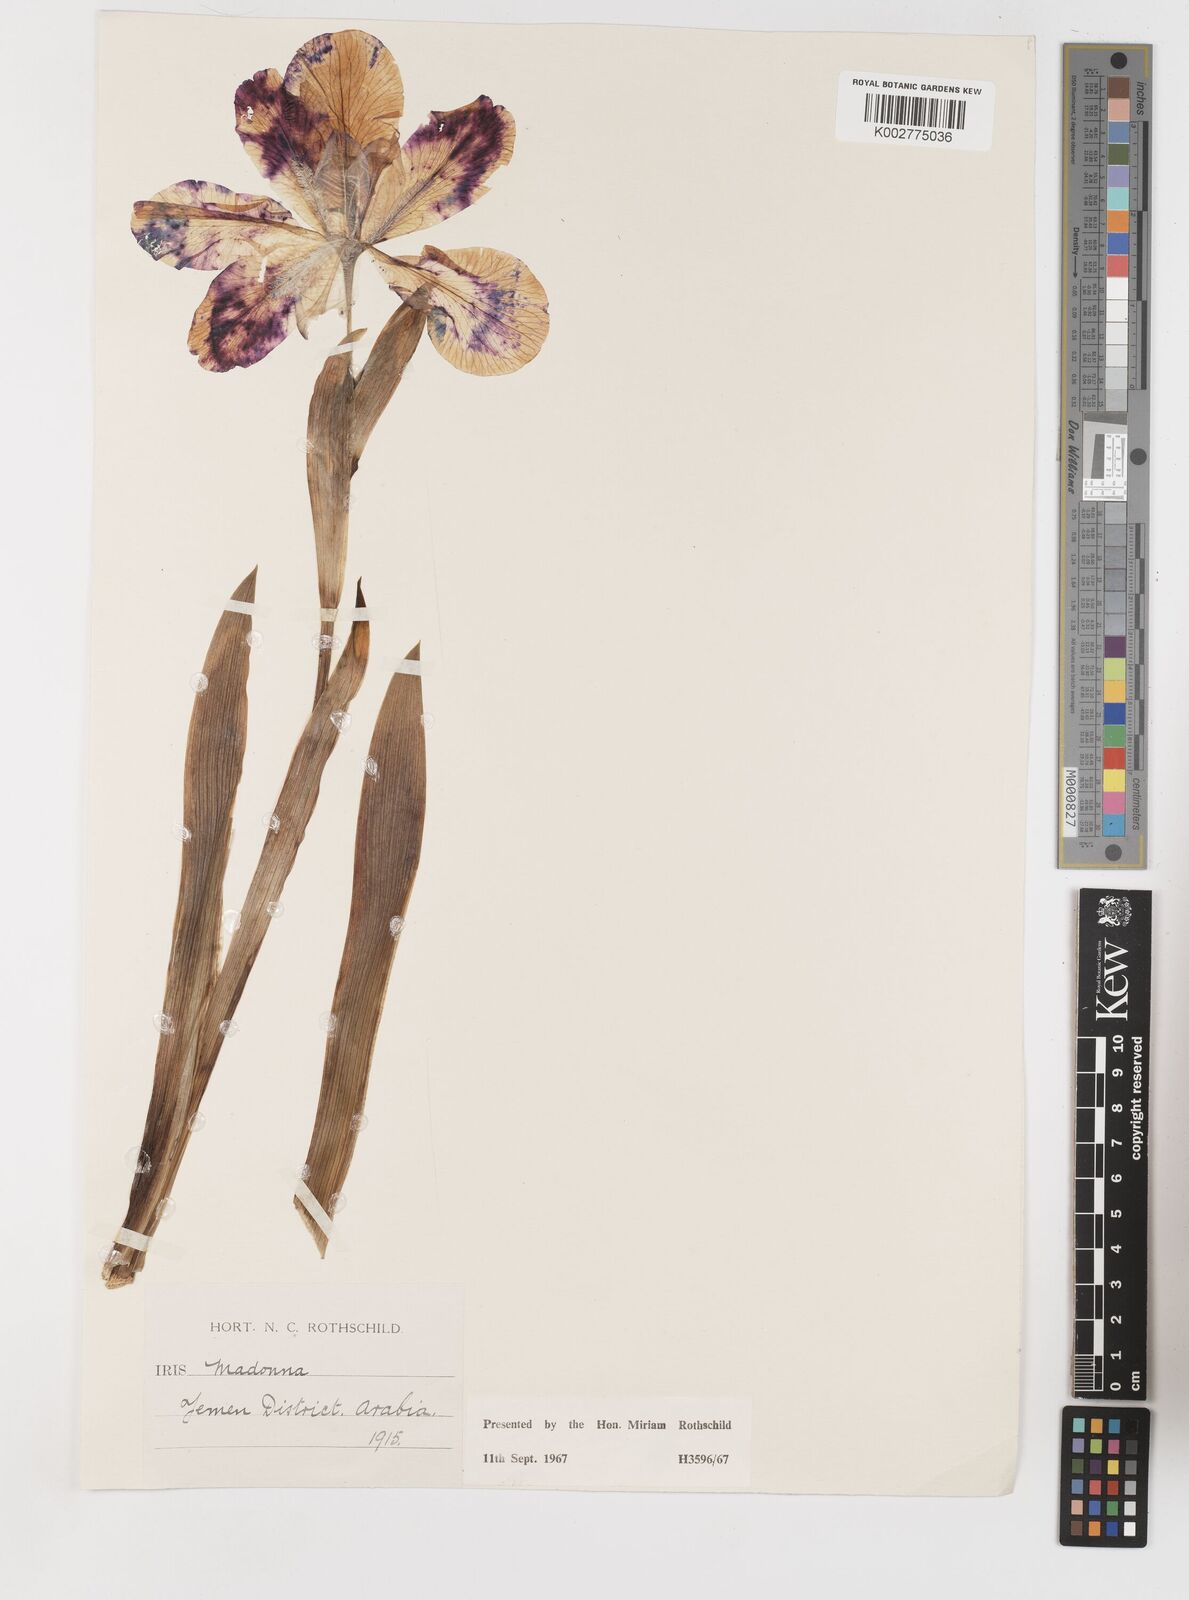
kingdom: Plantae
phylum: Tracheophyta
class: Liliopsida
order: Asparagales
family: Iridaceae
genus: Iris
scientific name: Iris florentina
